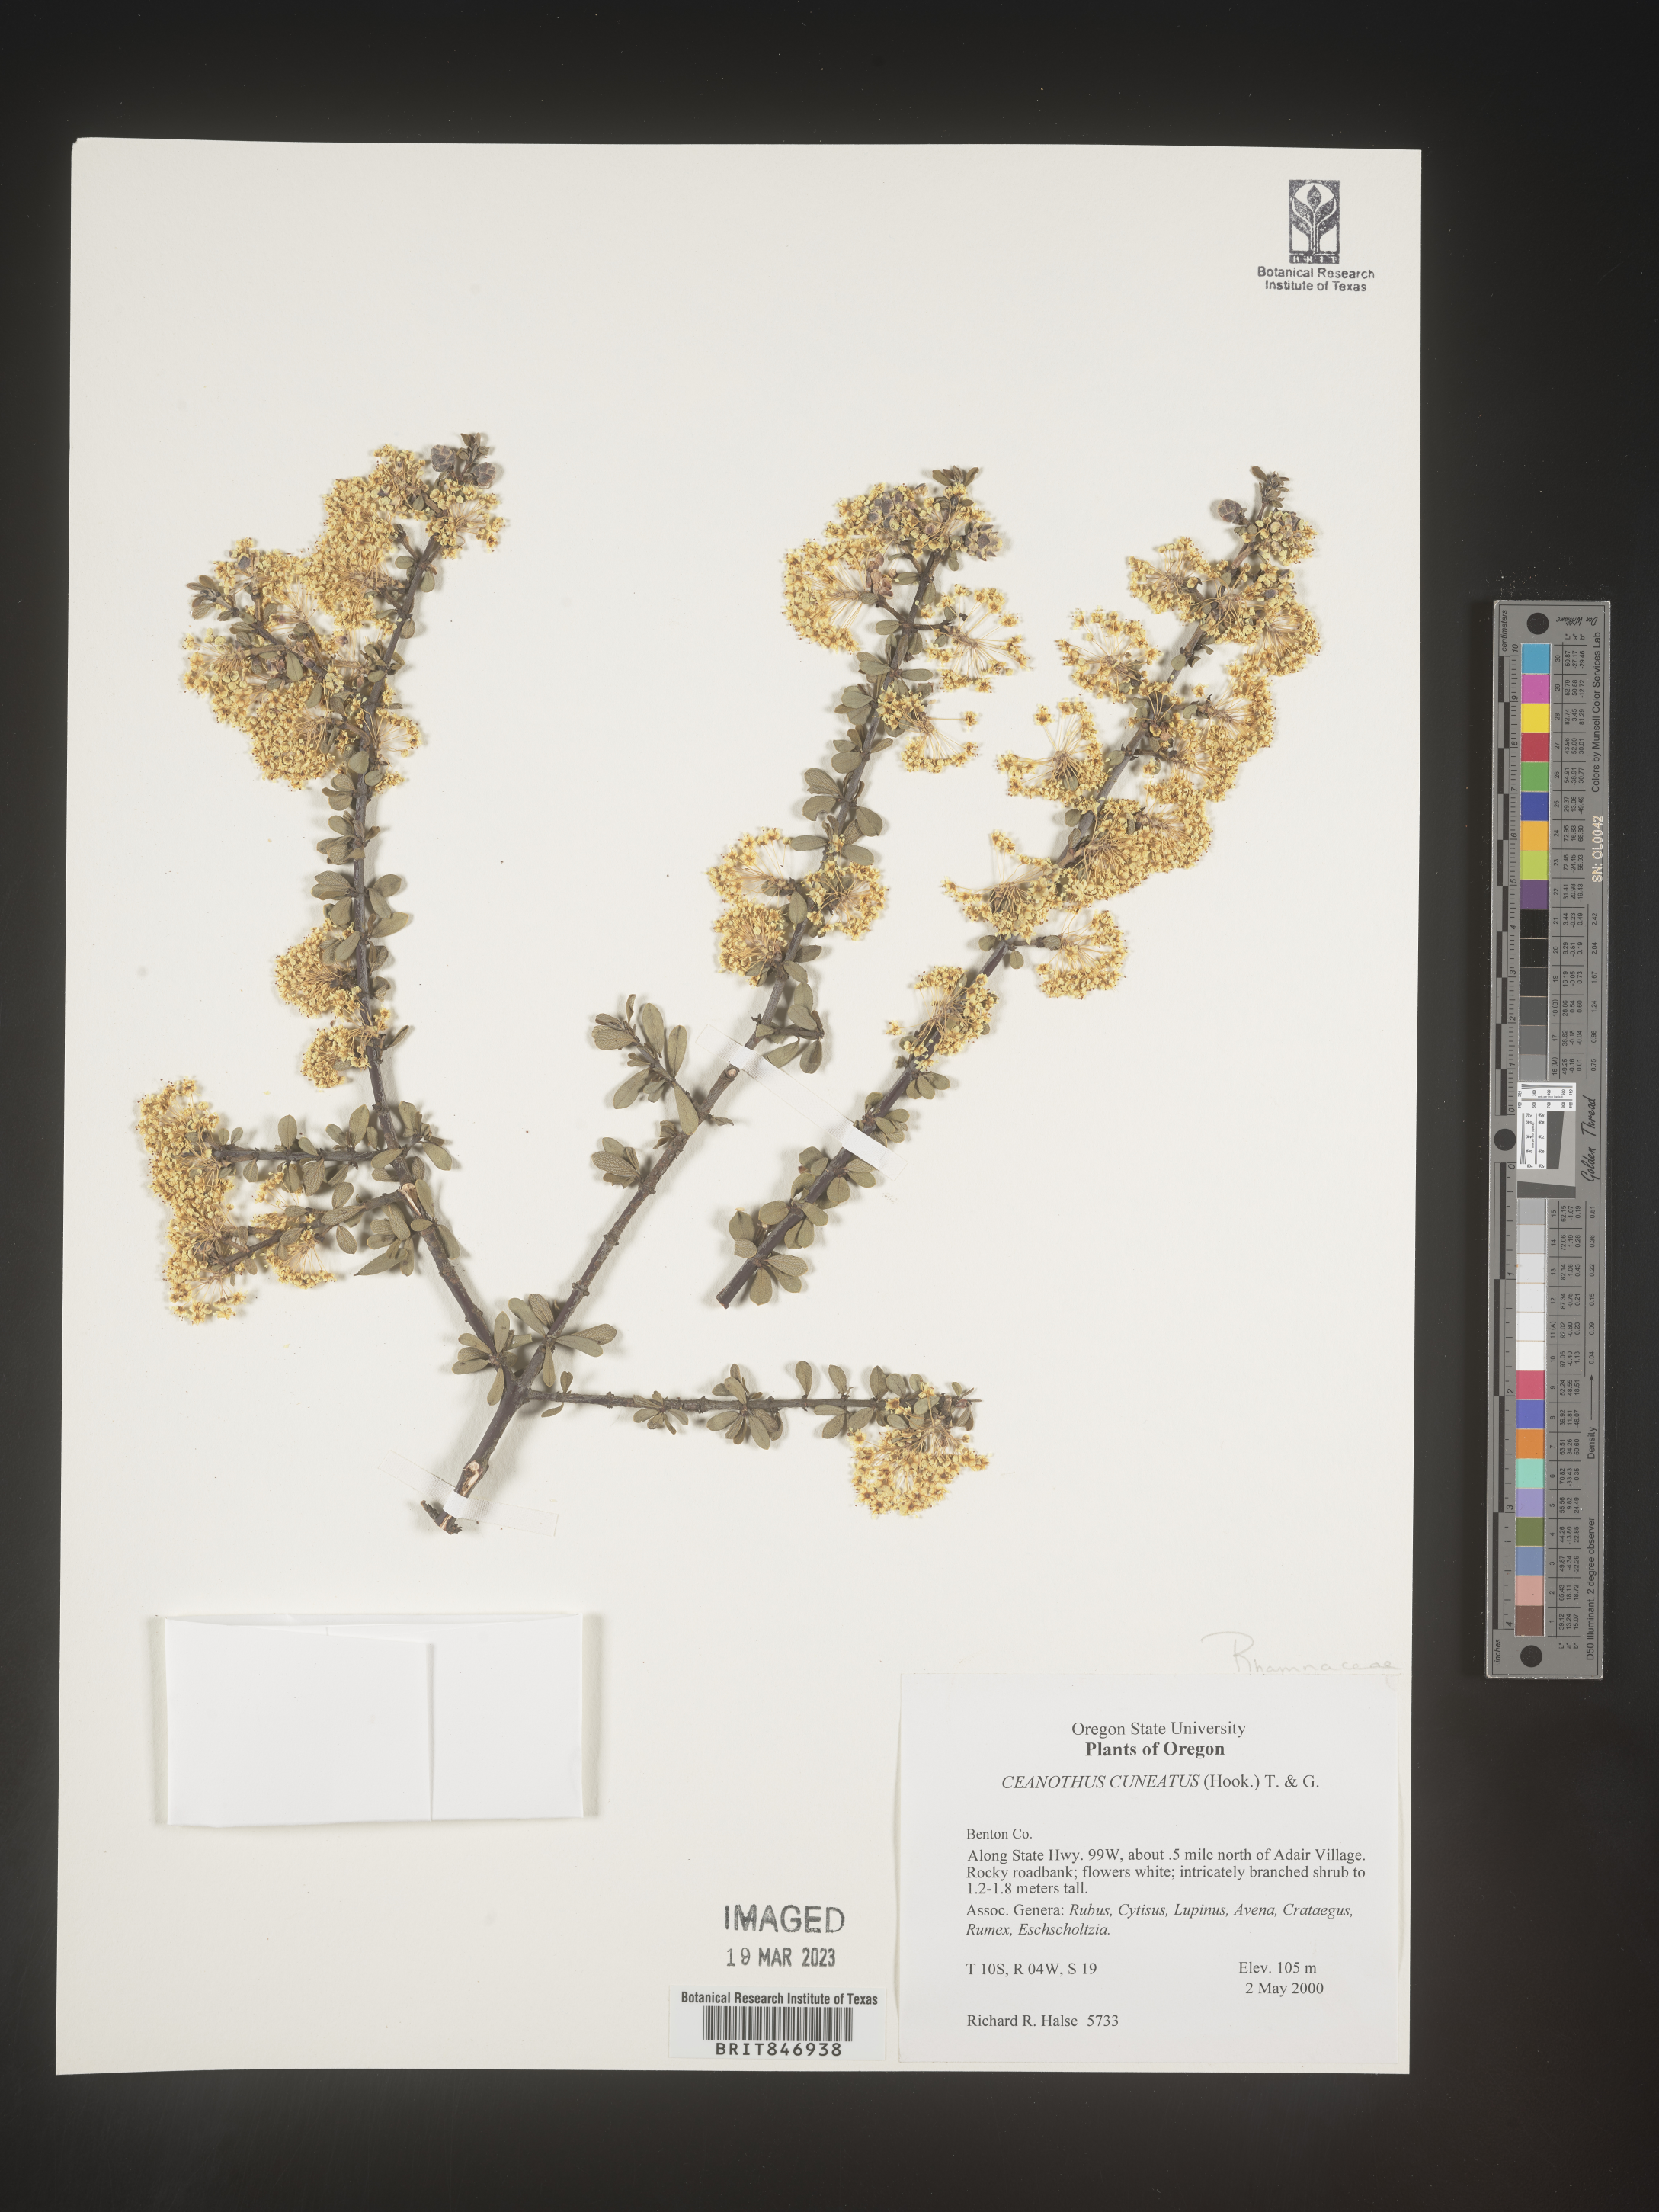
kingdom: Plantae
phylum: Tracheophyta
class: Magnoliopsida
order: Rosales
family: Rhamnaceae
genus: Ceanothus
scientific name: Ceanothus cuneatus
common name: Cuneate ceanothus
